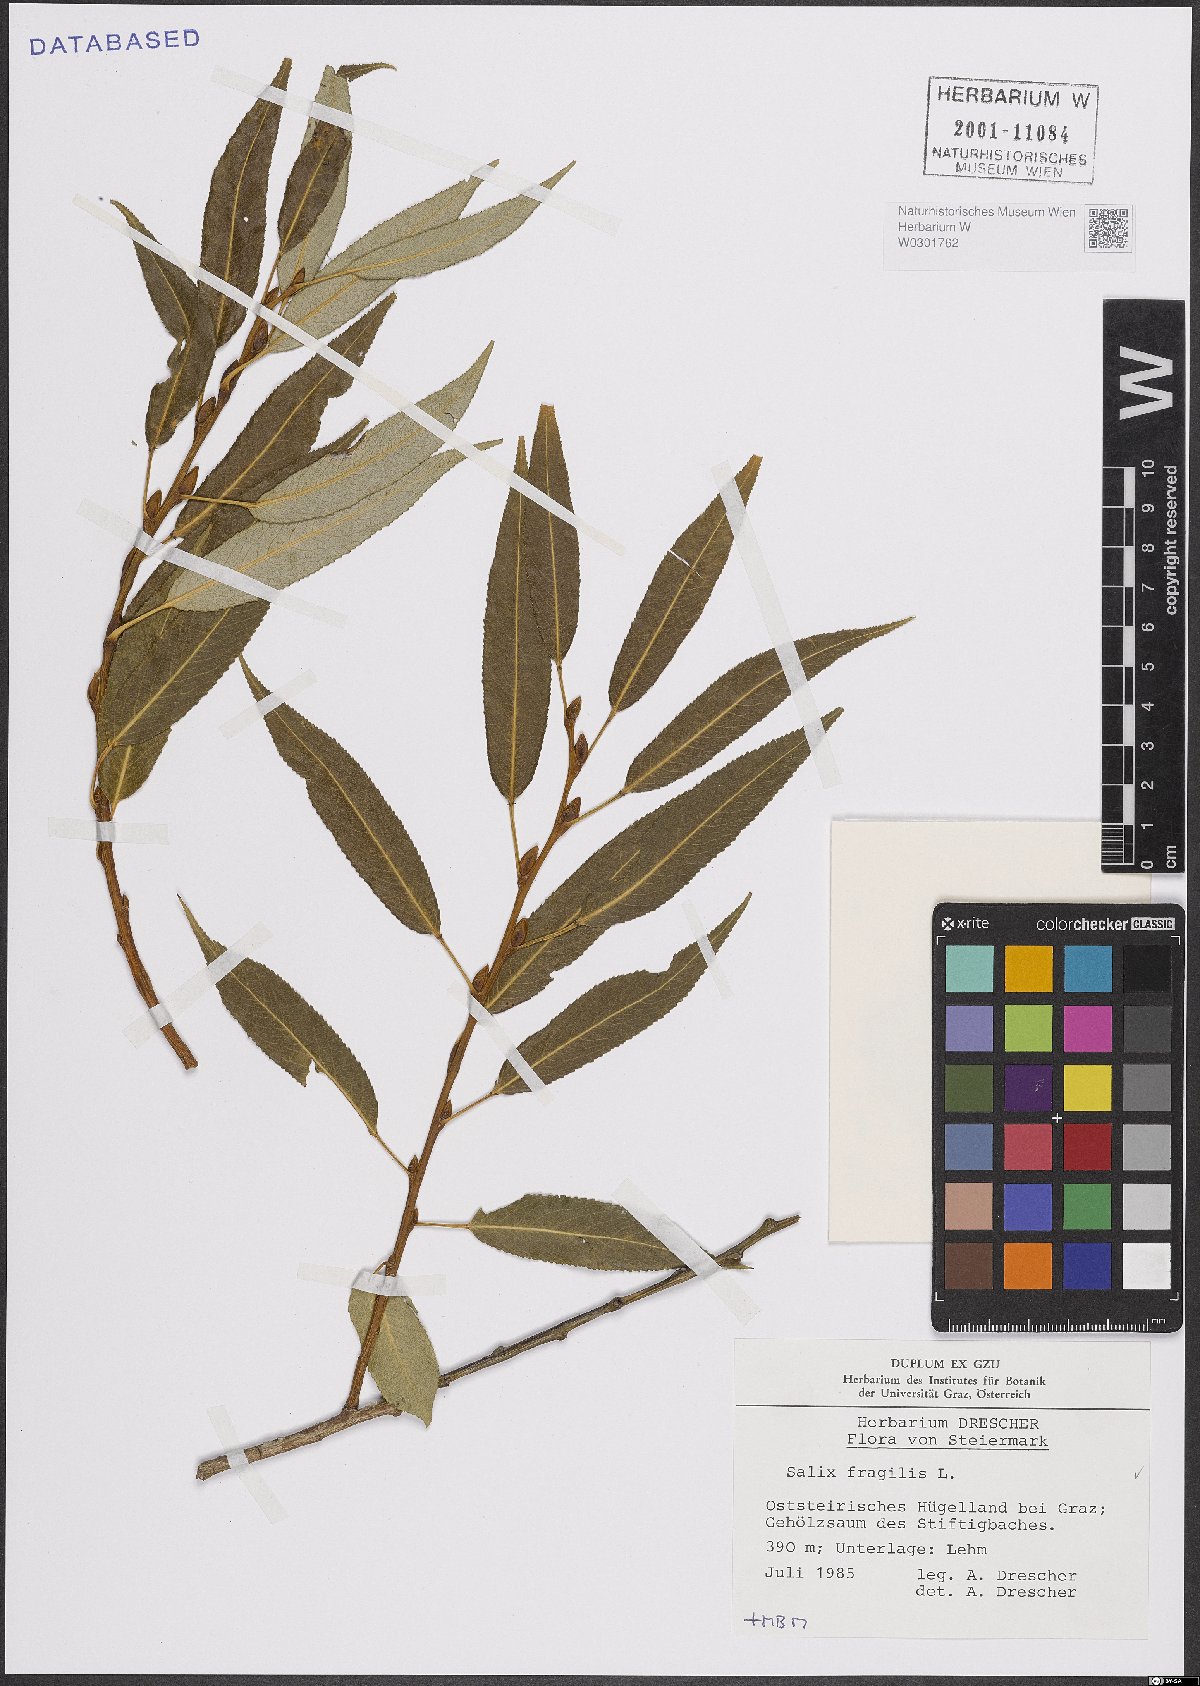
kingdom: Plantae
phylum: Tracheophyta
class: Magnoliopsida
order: Malpighiales
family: Salicaceae
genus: Salix
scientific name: Salix fragilis
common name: Crack willow
